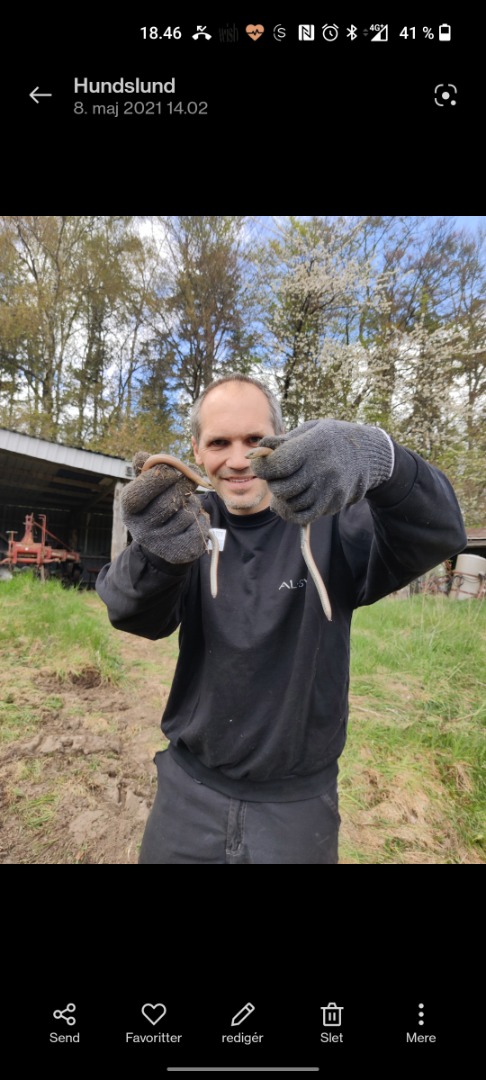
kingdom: Animalia
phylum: Chordata
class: Squamata
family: Anguidae
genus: Anguis
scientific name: Anguis fragilis
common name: Stålorm
